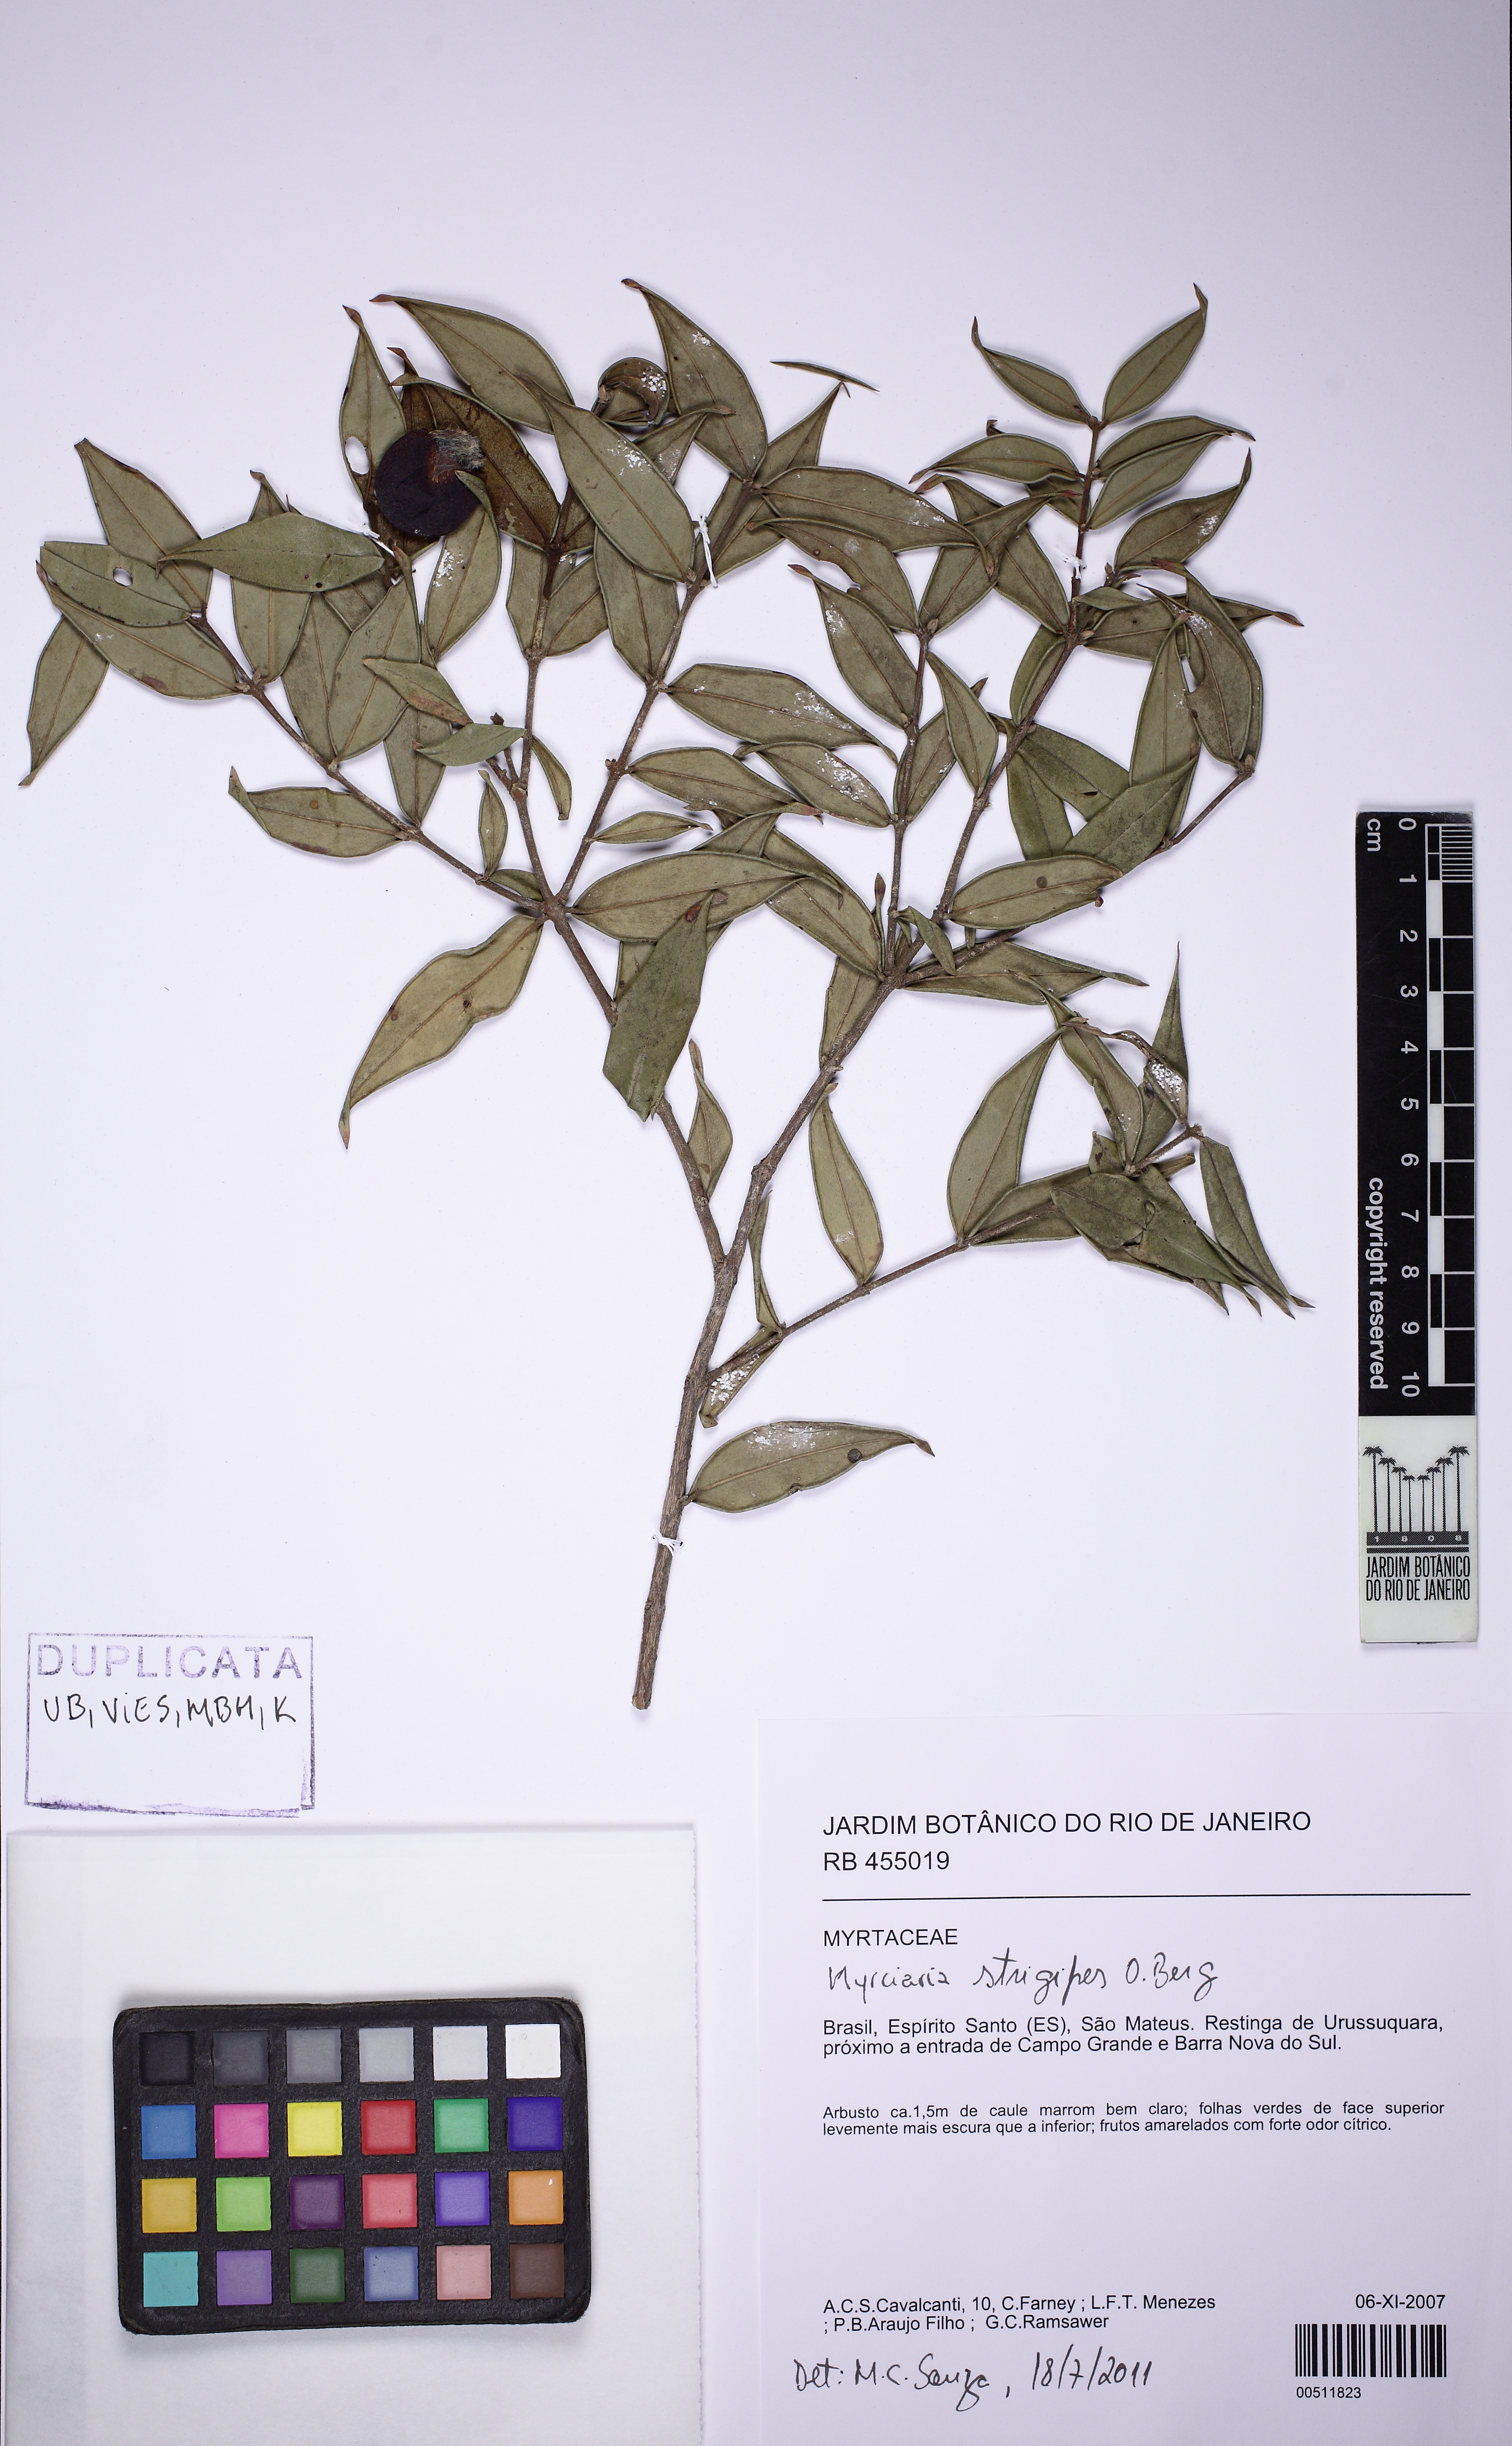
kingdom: Plantae
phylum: Tracheophyta
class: Magnoliopsida
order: Myrtales
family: Myrtaceae
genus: Myrciaria
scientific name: Myrciaria strigipes
